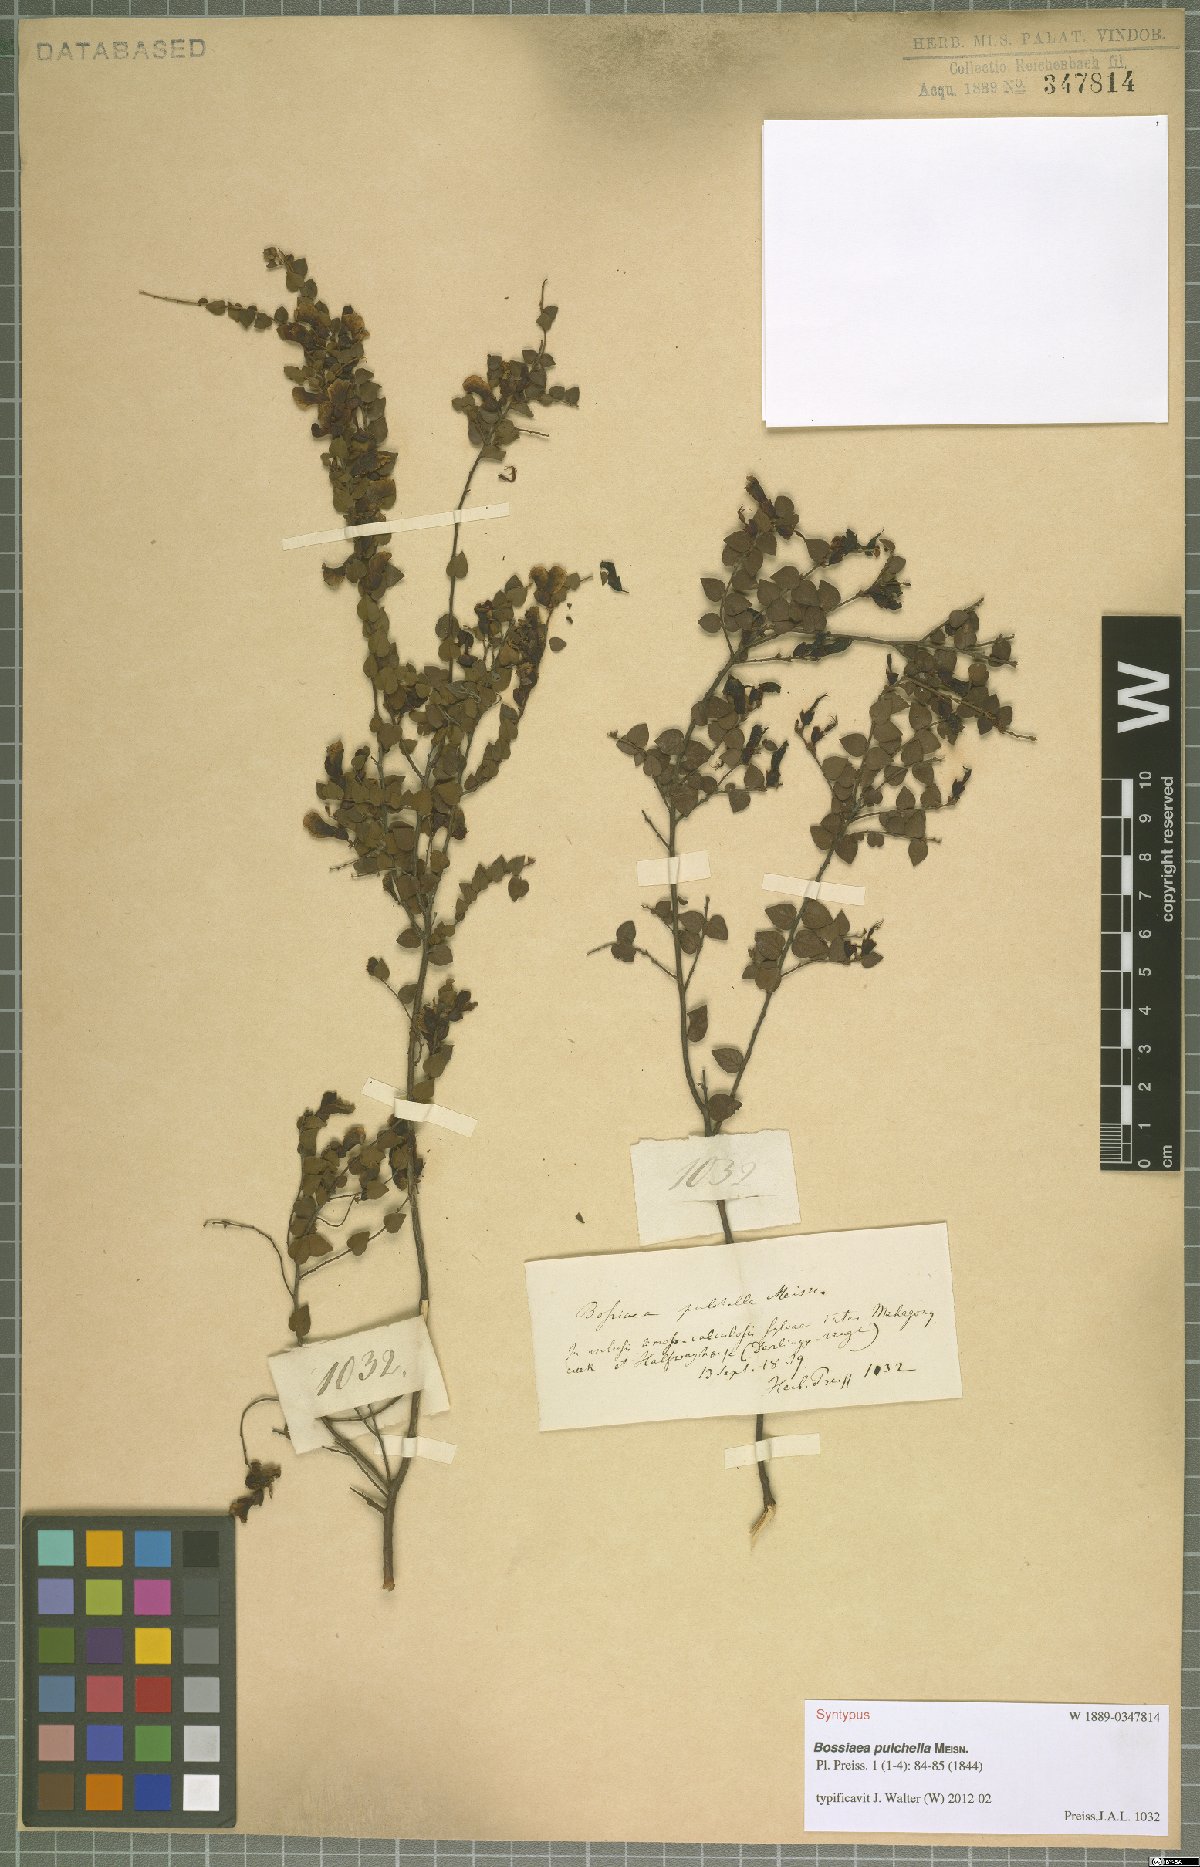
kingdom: Plantae
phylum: Tracheophyta
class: Magnoliopsida
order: Fabales
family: Fabaceae
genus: Bossiaea
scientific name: Bossiaea pulchella
